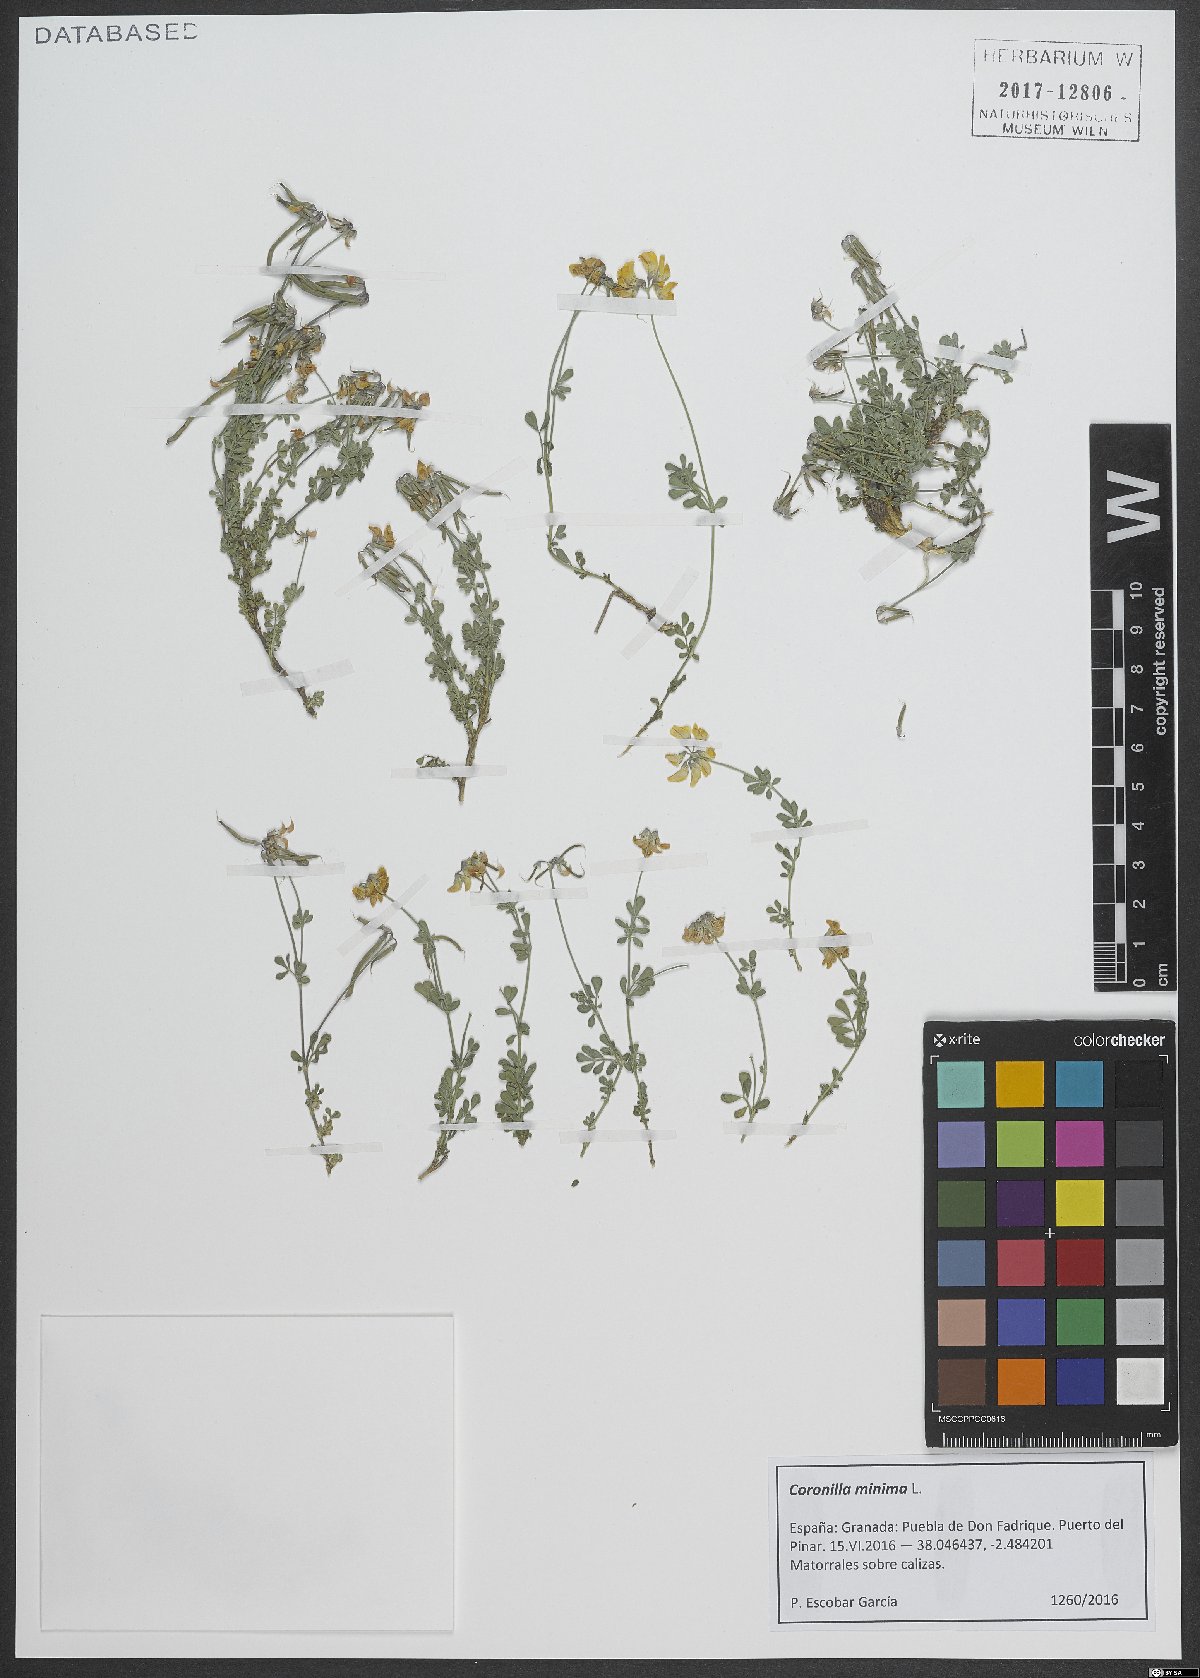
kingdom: Plantae
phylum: Tracheophyta
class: Magnoliopsida
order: Fabales
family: Fabaceae
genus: Coronilla
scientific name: Coronilla minima
